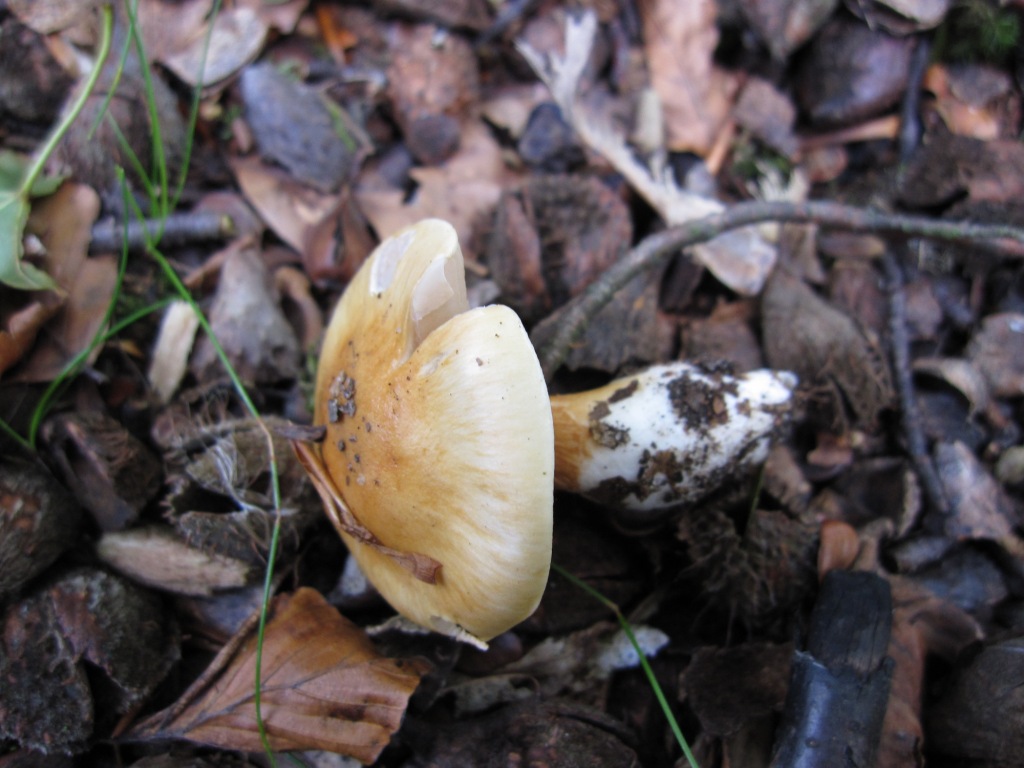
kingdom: Fungi
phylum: Basidiomycota
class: Agaricomycetes
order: Agaricales
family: Cortinariaceae
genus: Thaxterogaster
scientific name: Thaxterogaster emollitus
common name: besk slørhat
